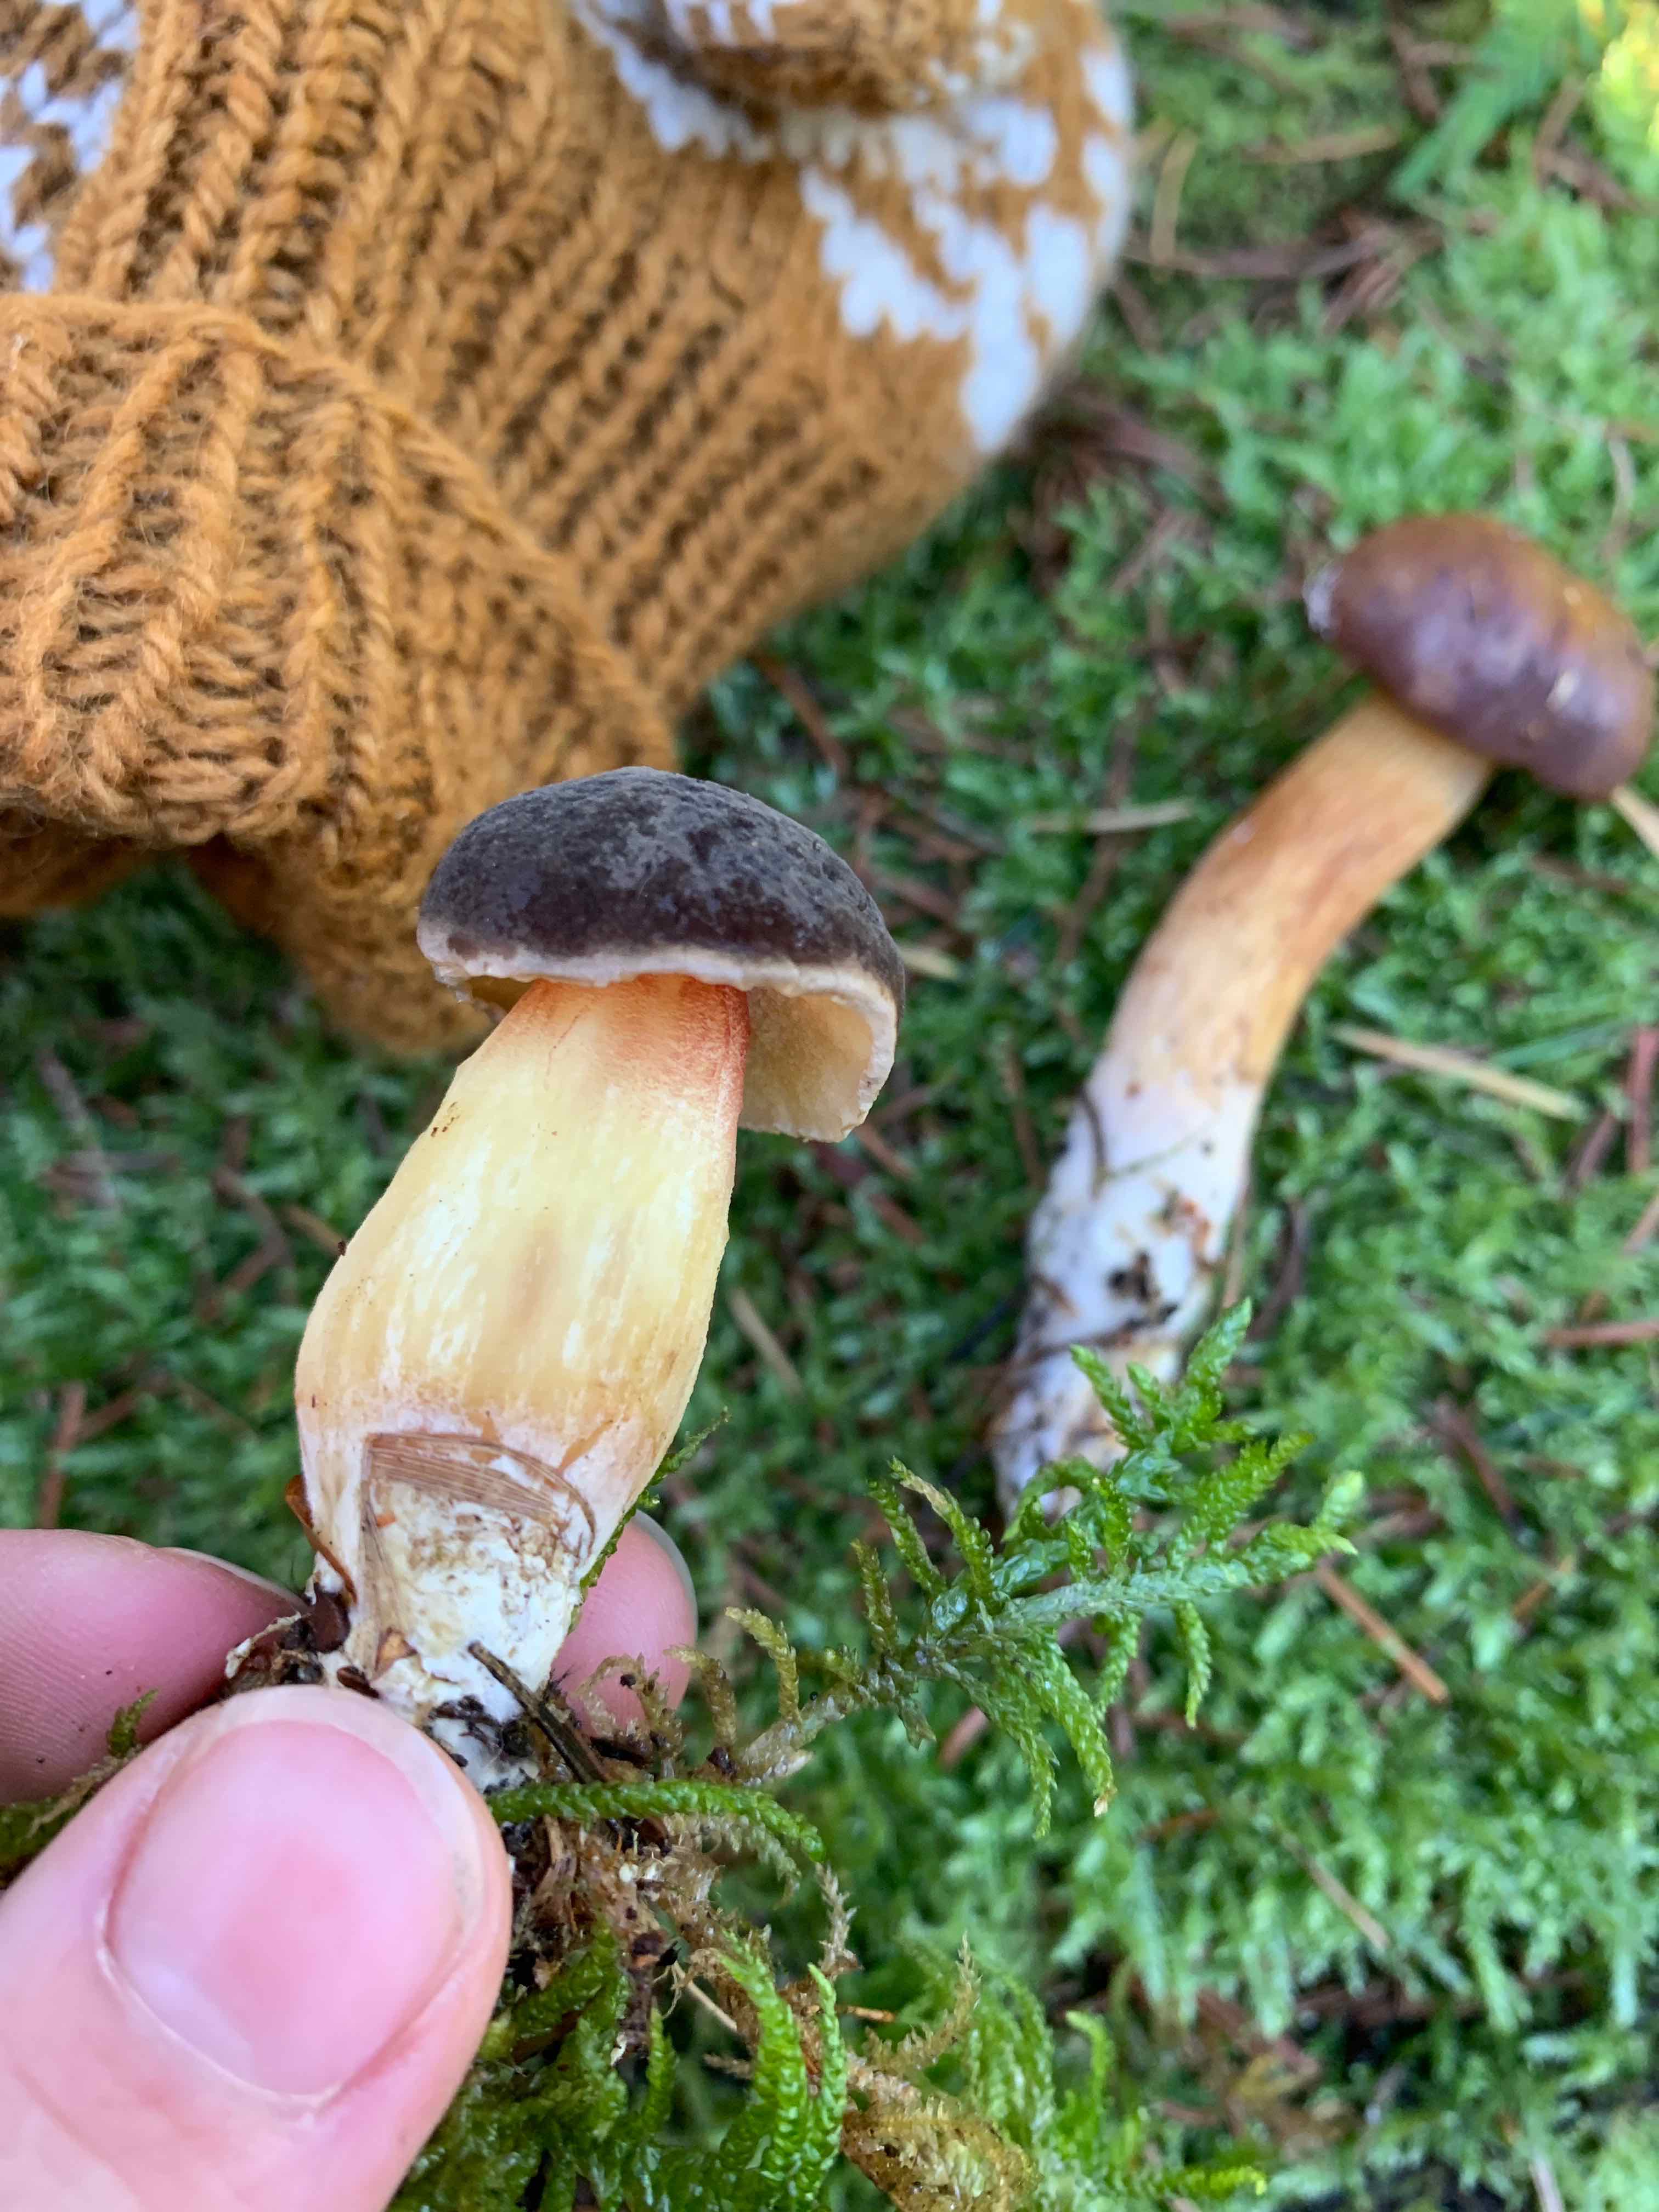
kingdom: Fungi
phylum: Basidiomycota
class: Agaricomycetes
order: Boletales
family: Boletaceae
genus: Xerocomellus
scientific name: Xerocomellus pruinatus
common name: dugget rørhat
